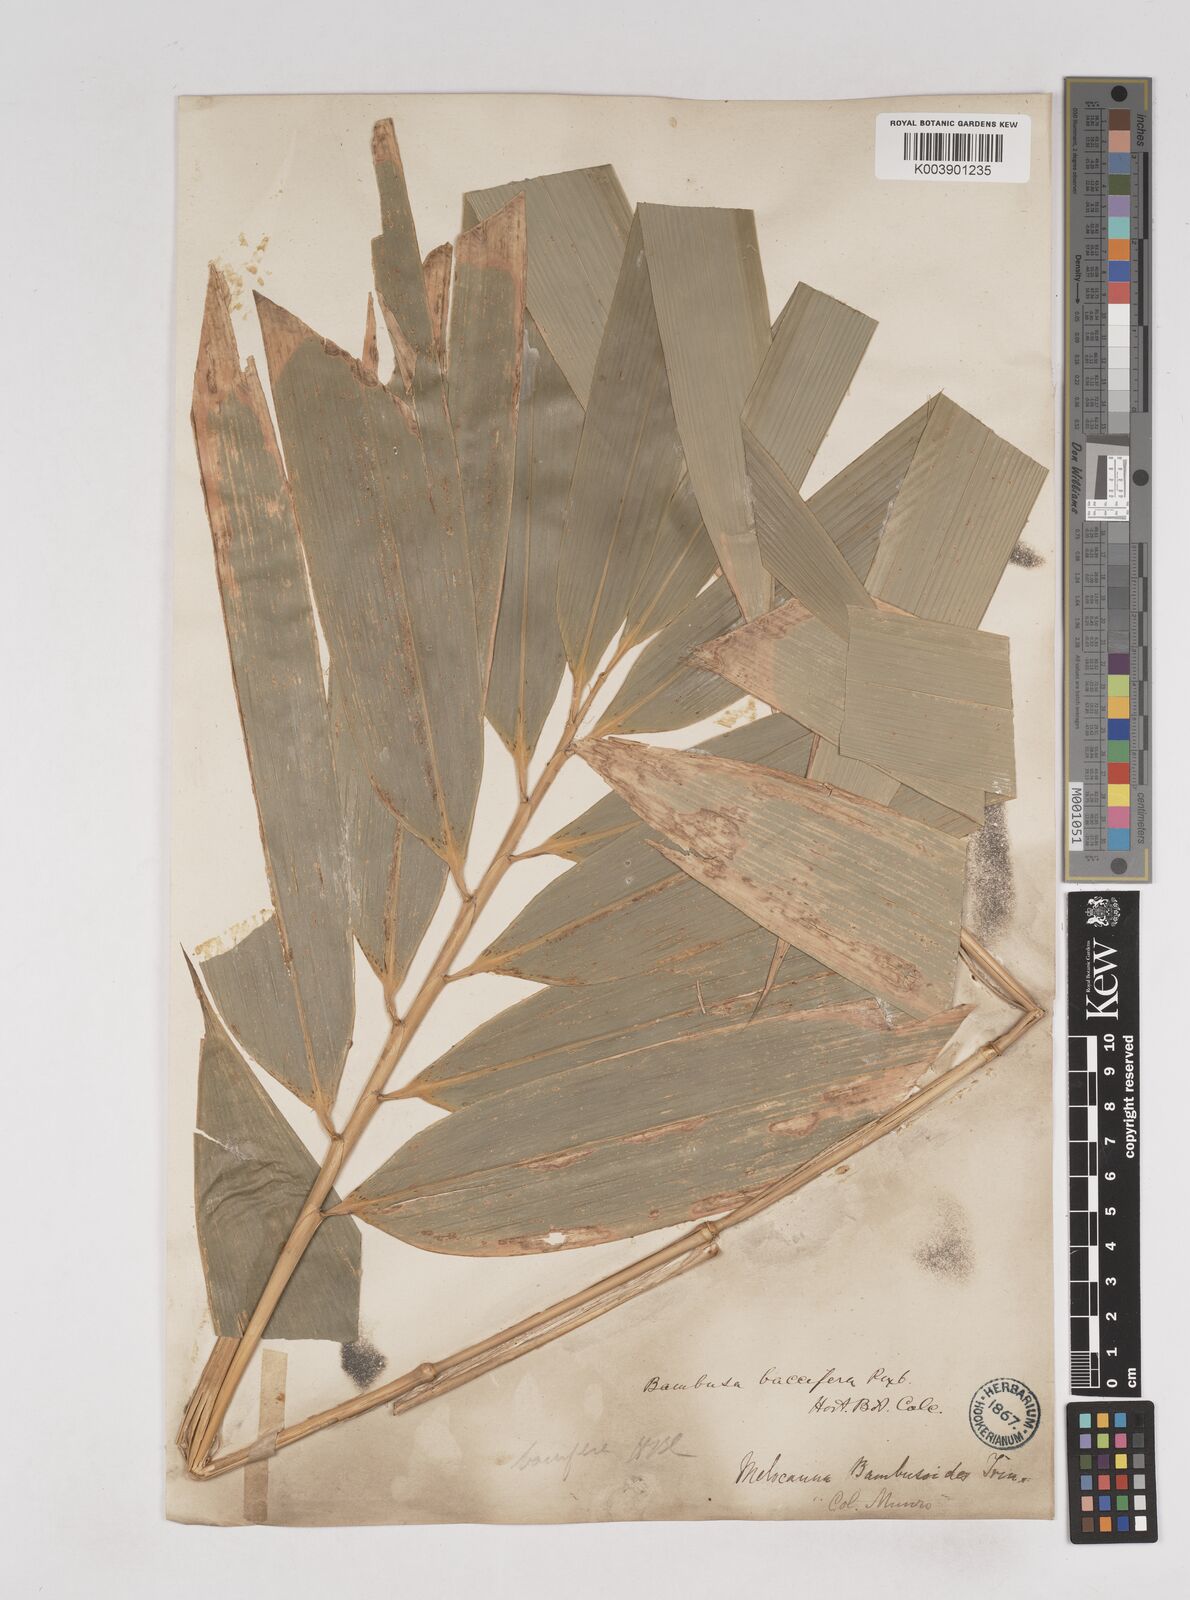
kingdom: Plantae
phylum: Tracheophyta
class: Liliopsida
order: Poales
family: Poaceae
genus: Melocanna
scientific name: Melocanna baccifera
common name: Berry bamboo
